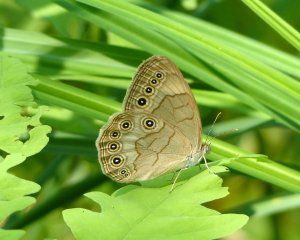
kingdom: Animalia
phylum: Arthropoda
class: Insecta
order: Lepidoptera
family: Nymphalidae
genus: Lethe
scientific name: Lethe eurydice
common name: Appalachian Eyed Brown
